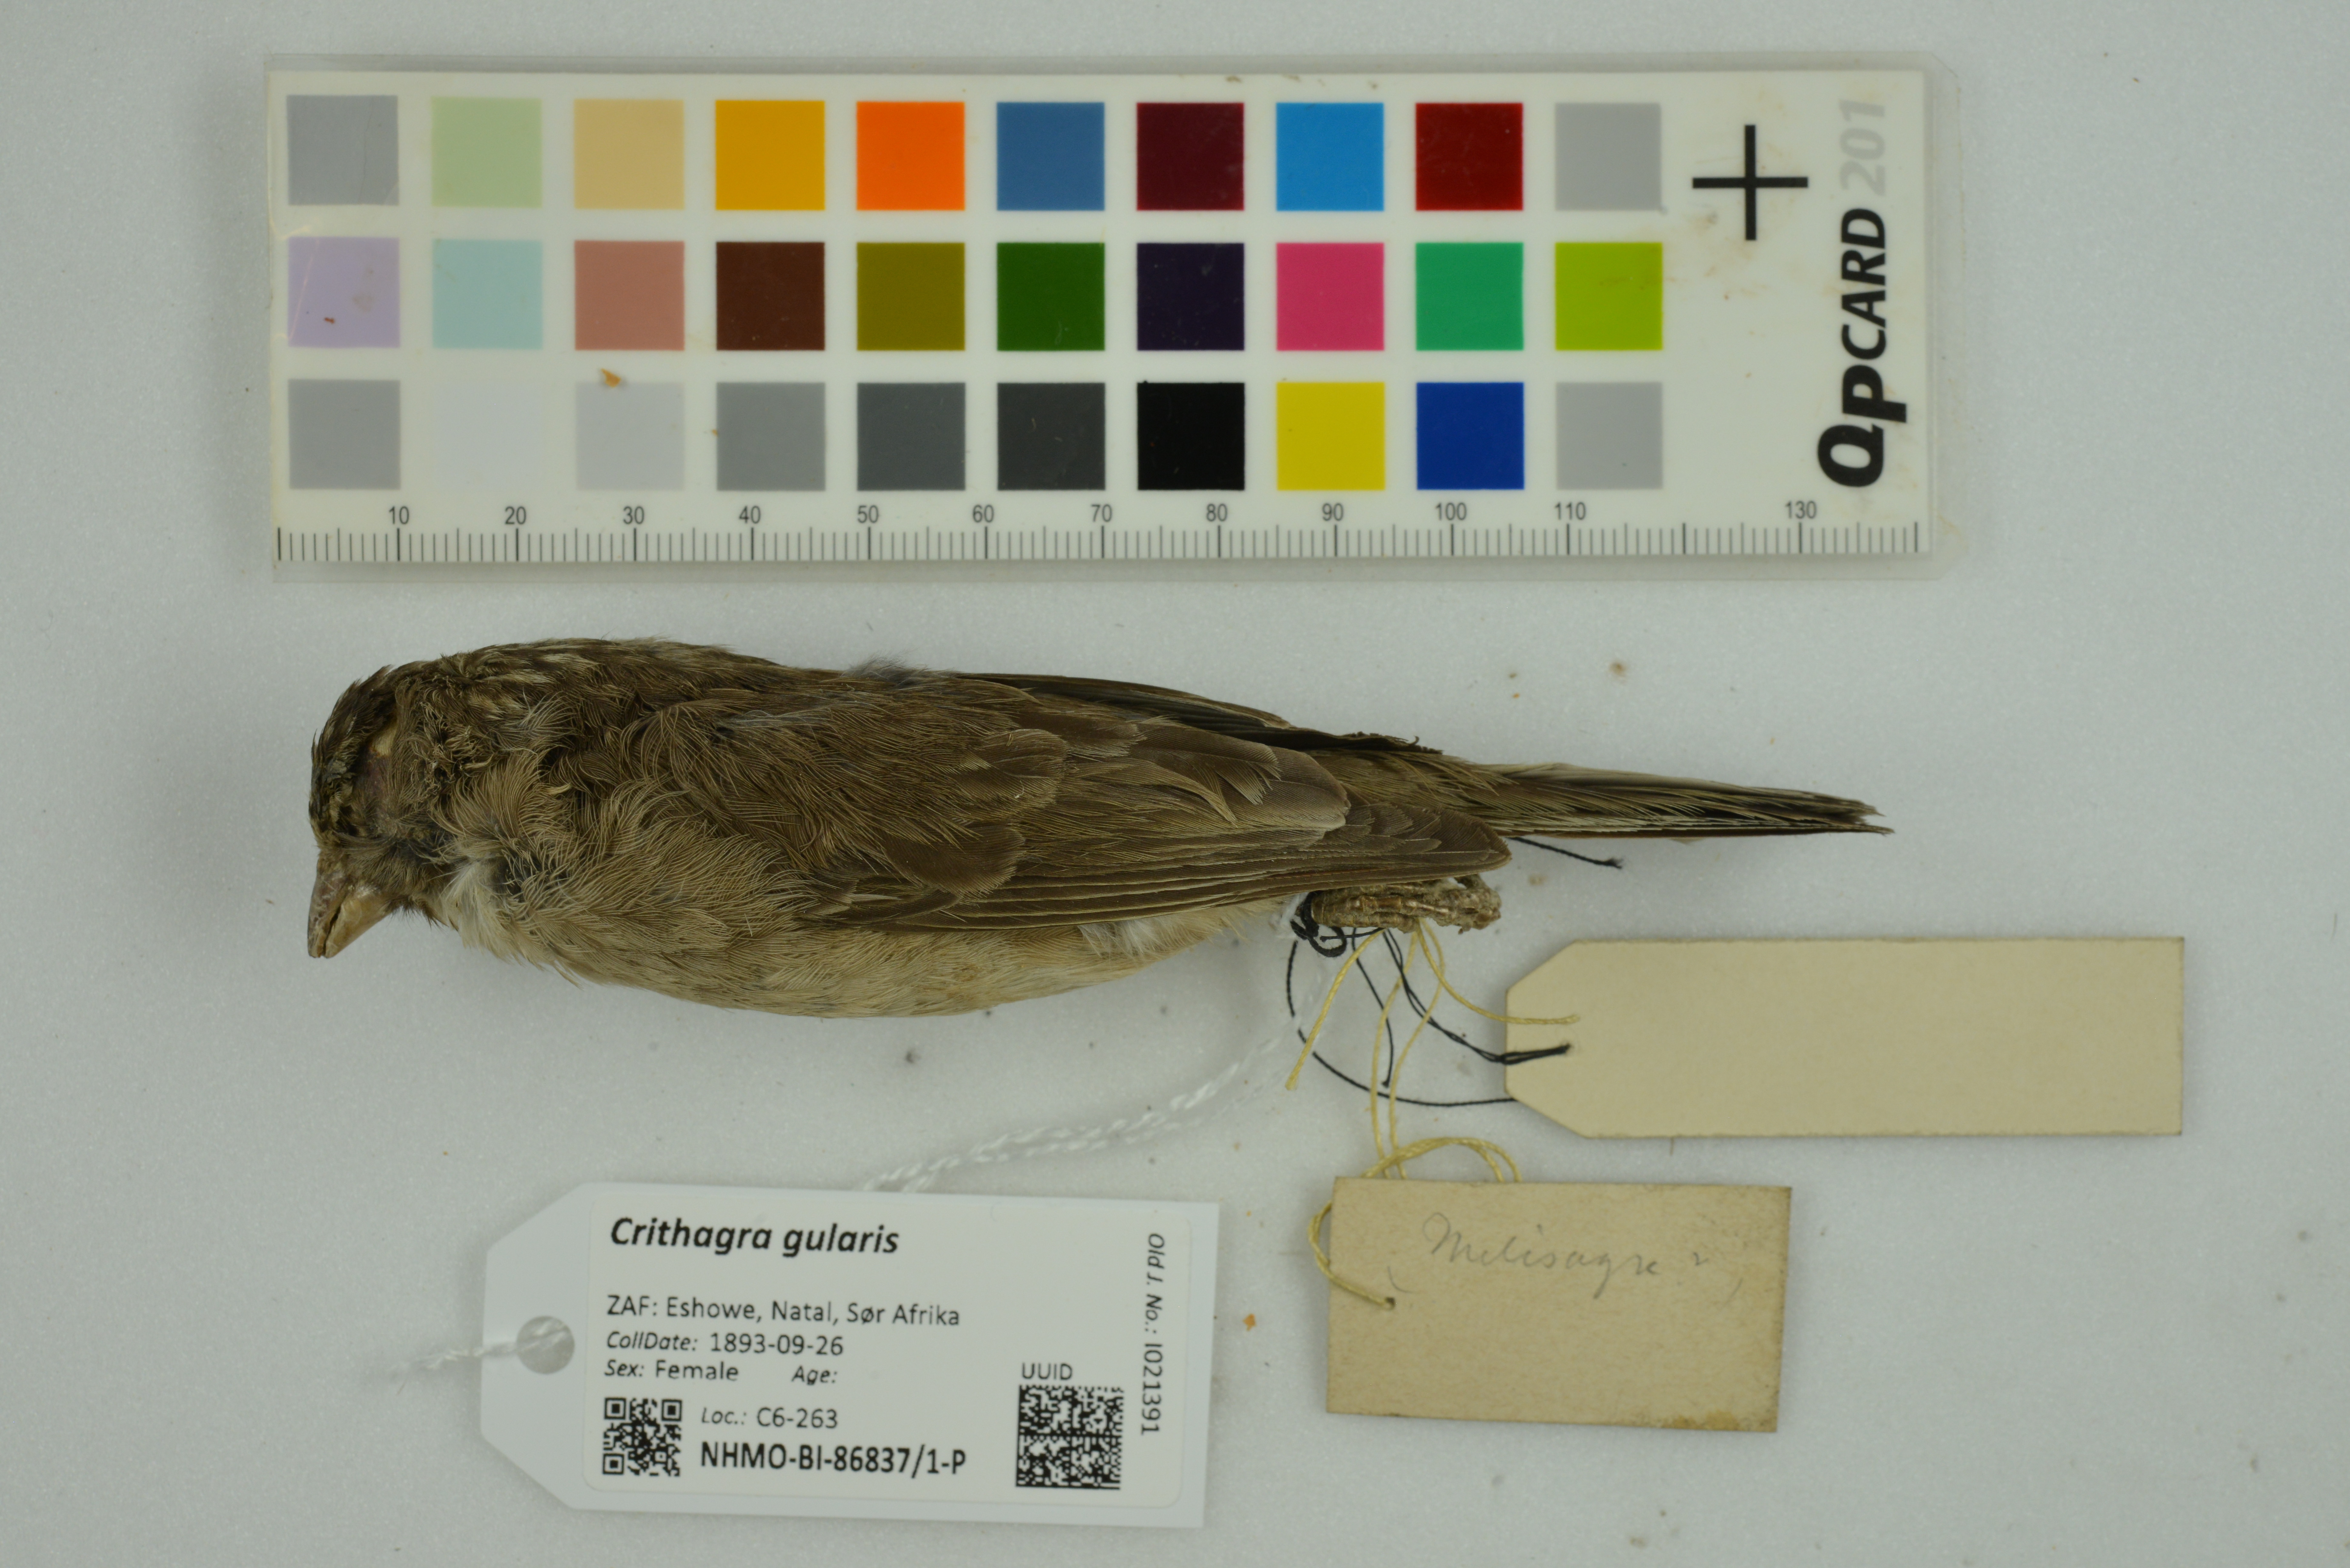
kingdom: Animalia
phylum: Chordata
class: Aves
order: Passeriformes
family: Fringillidae
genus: Crithagra
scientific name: Crithagra gularis
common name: Streaky-headed seedeater
